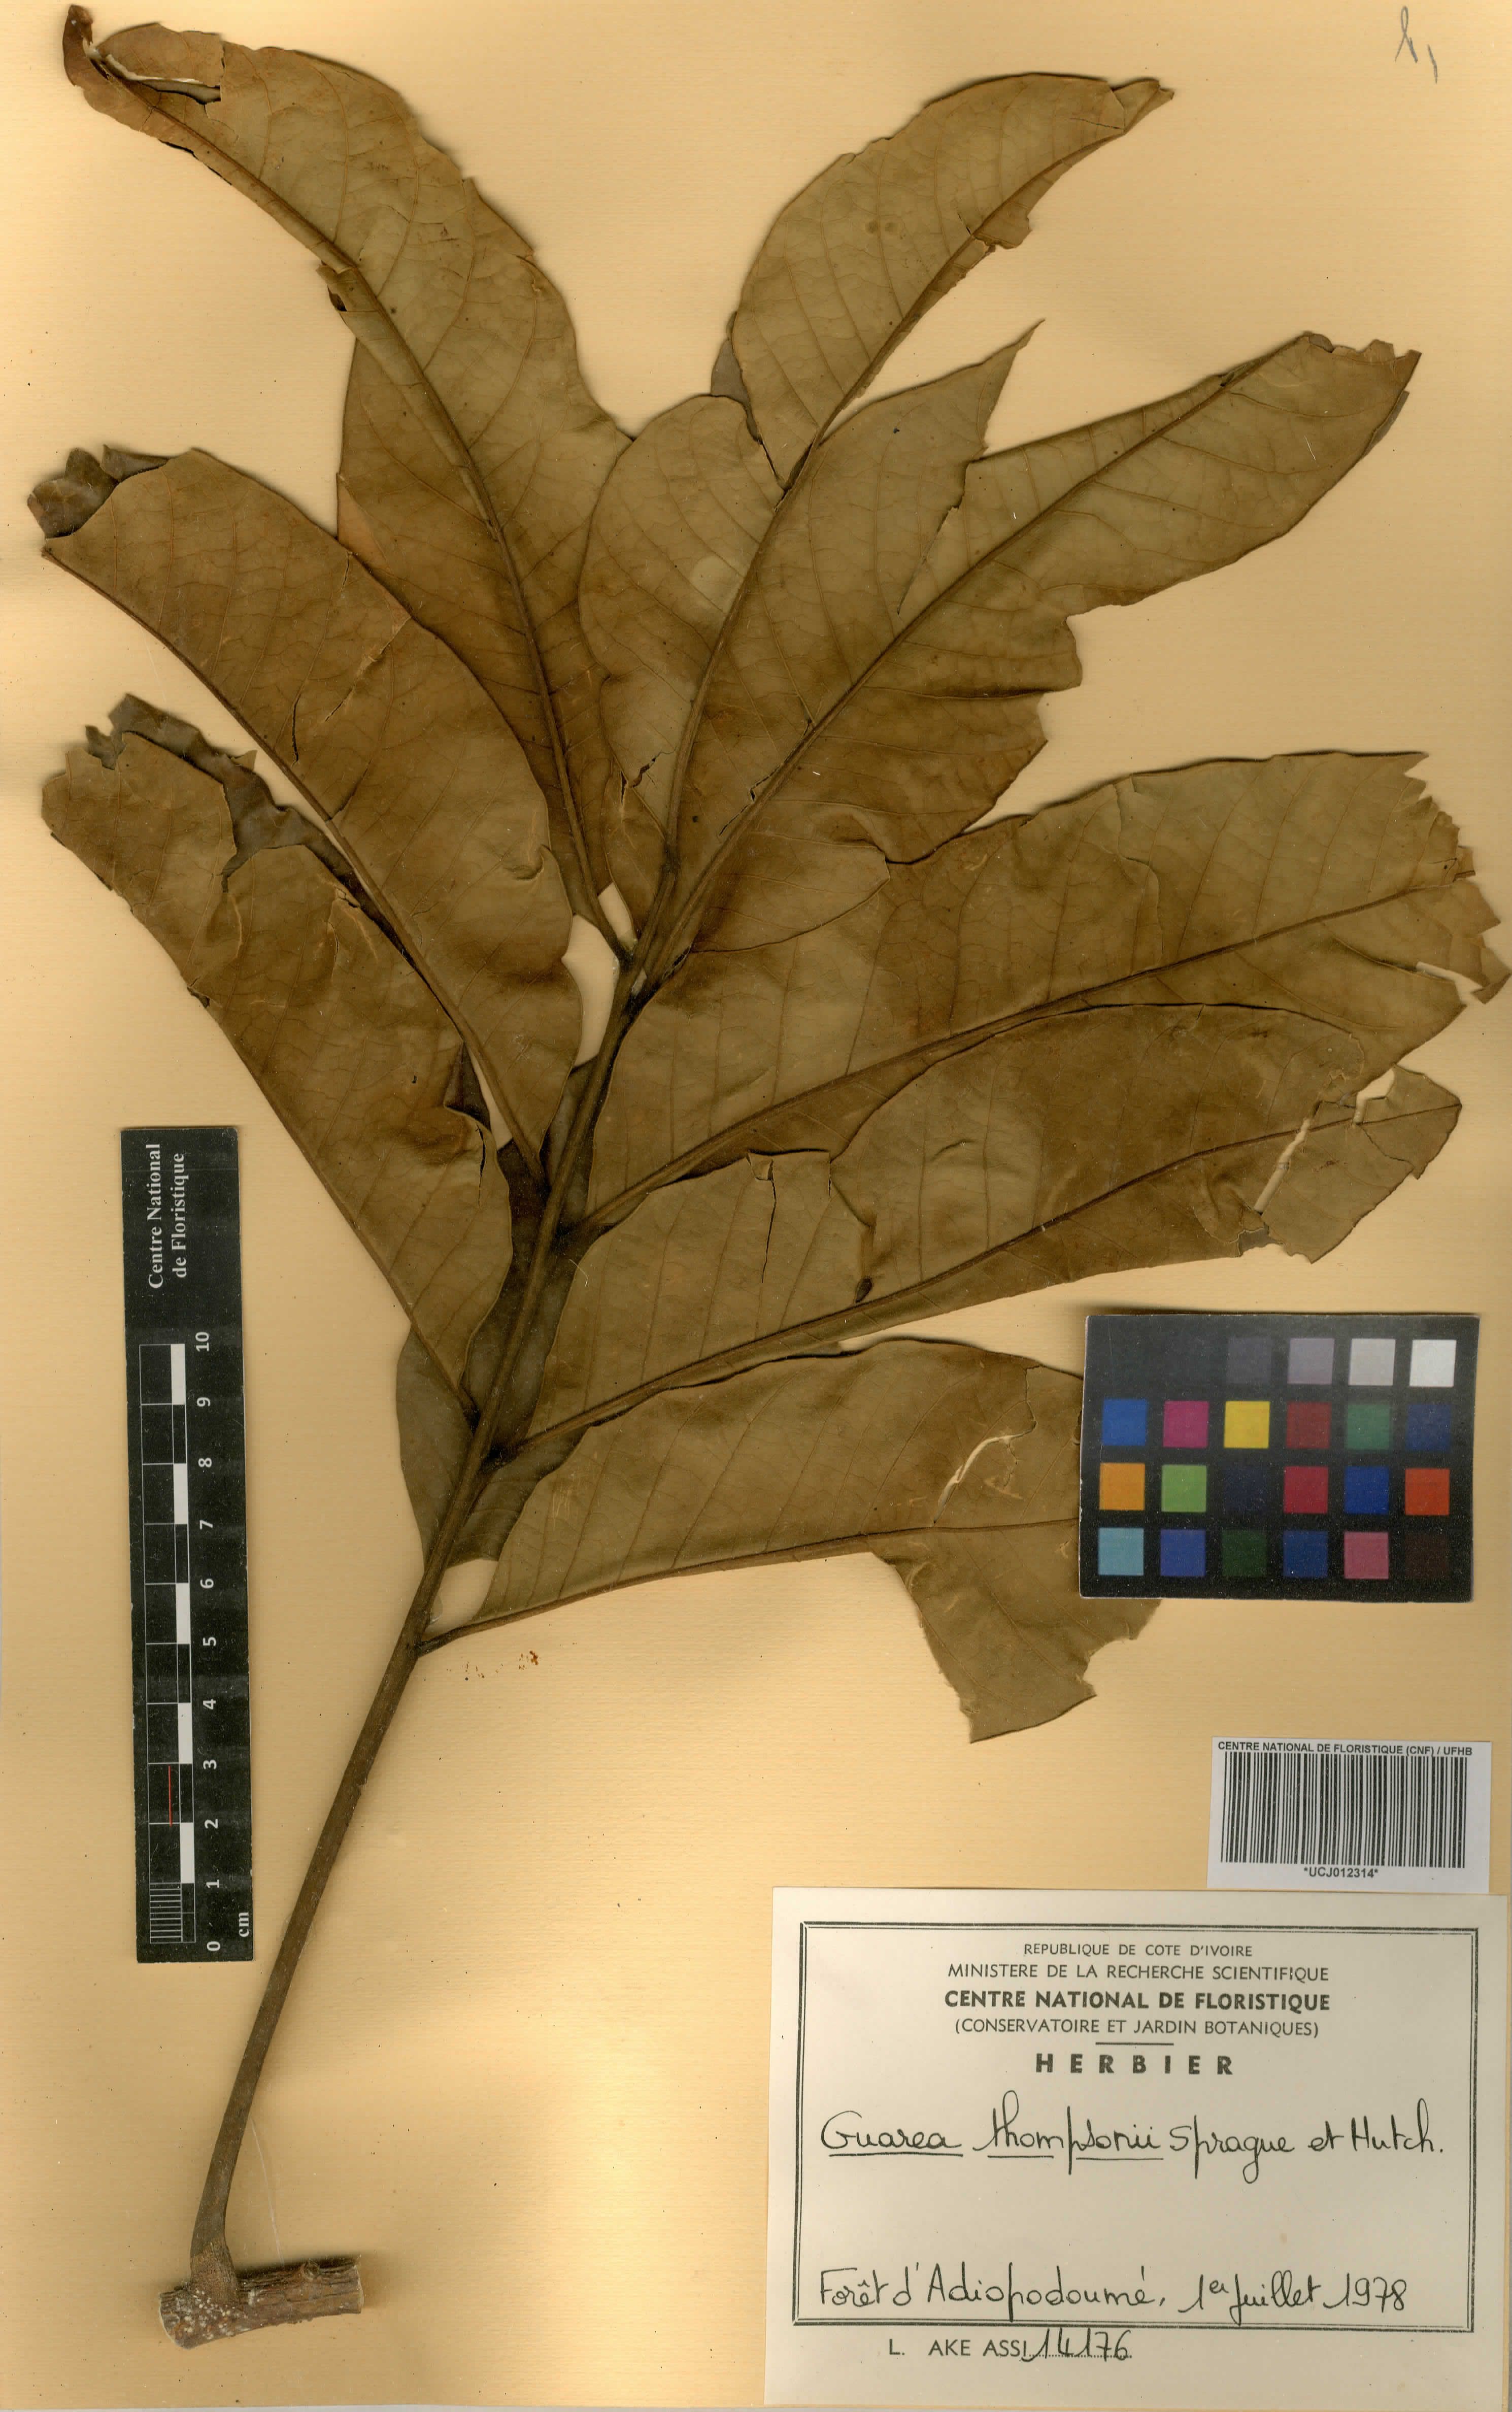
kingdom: Plantae
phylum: Tracheophyta
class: Magnoliopsida
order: Sapindales
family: Meliaceae
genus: Leplaea
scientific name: Leplaea thompsonii
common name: Black guarea
